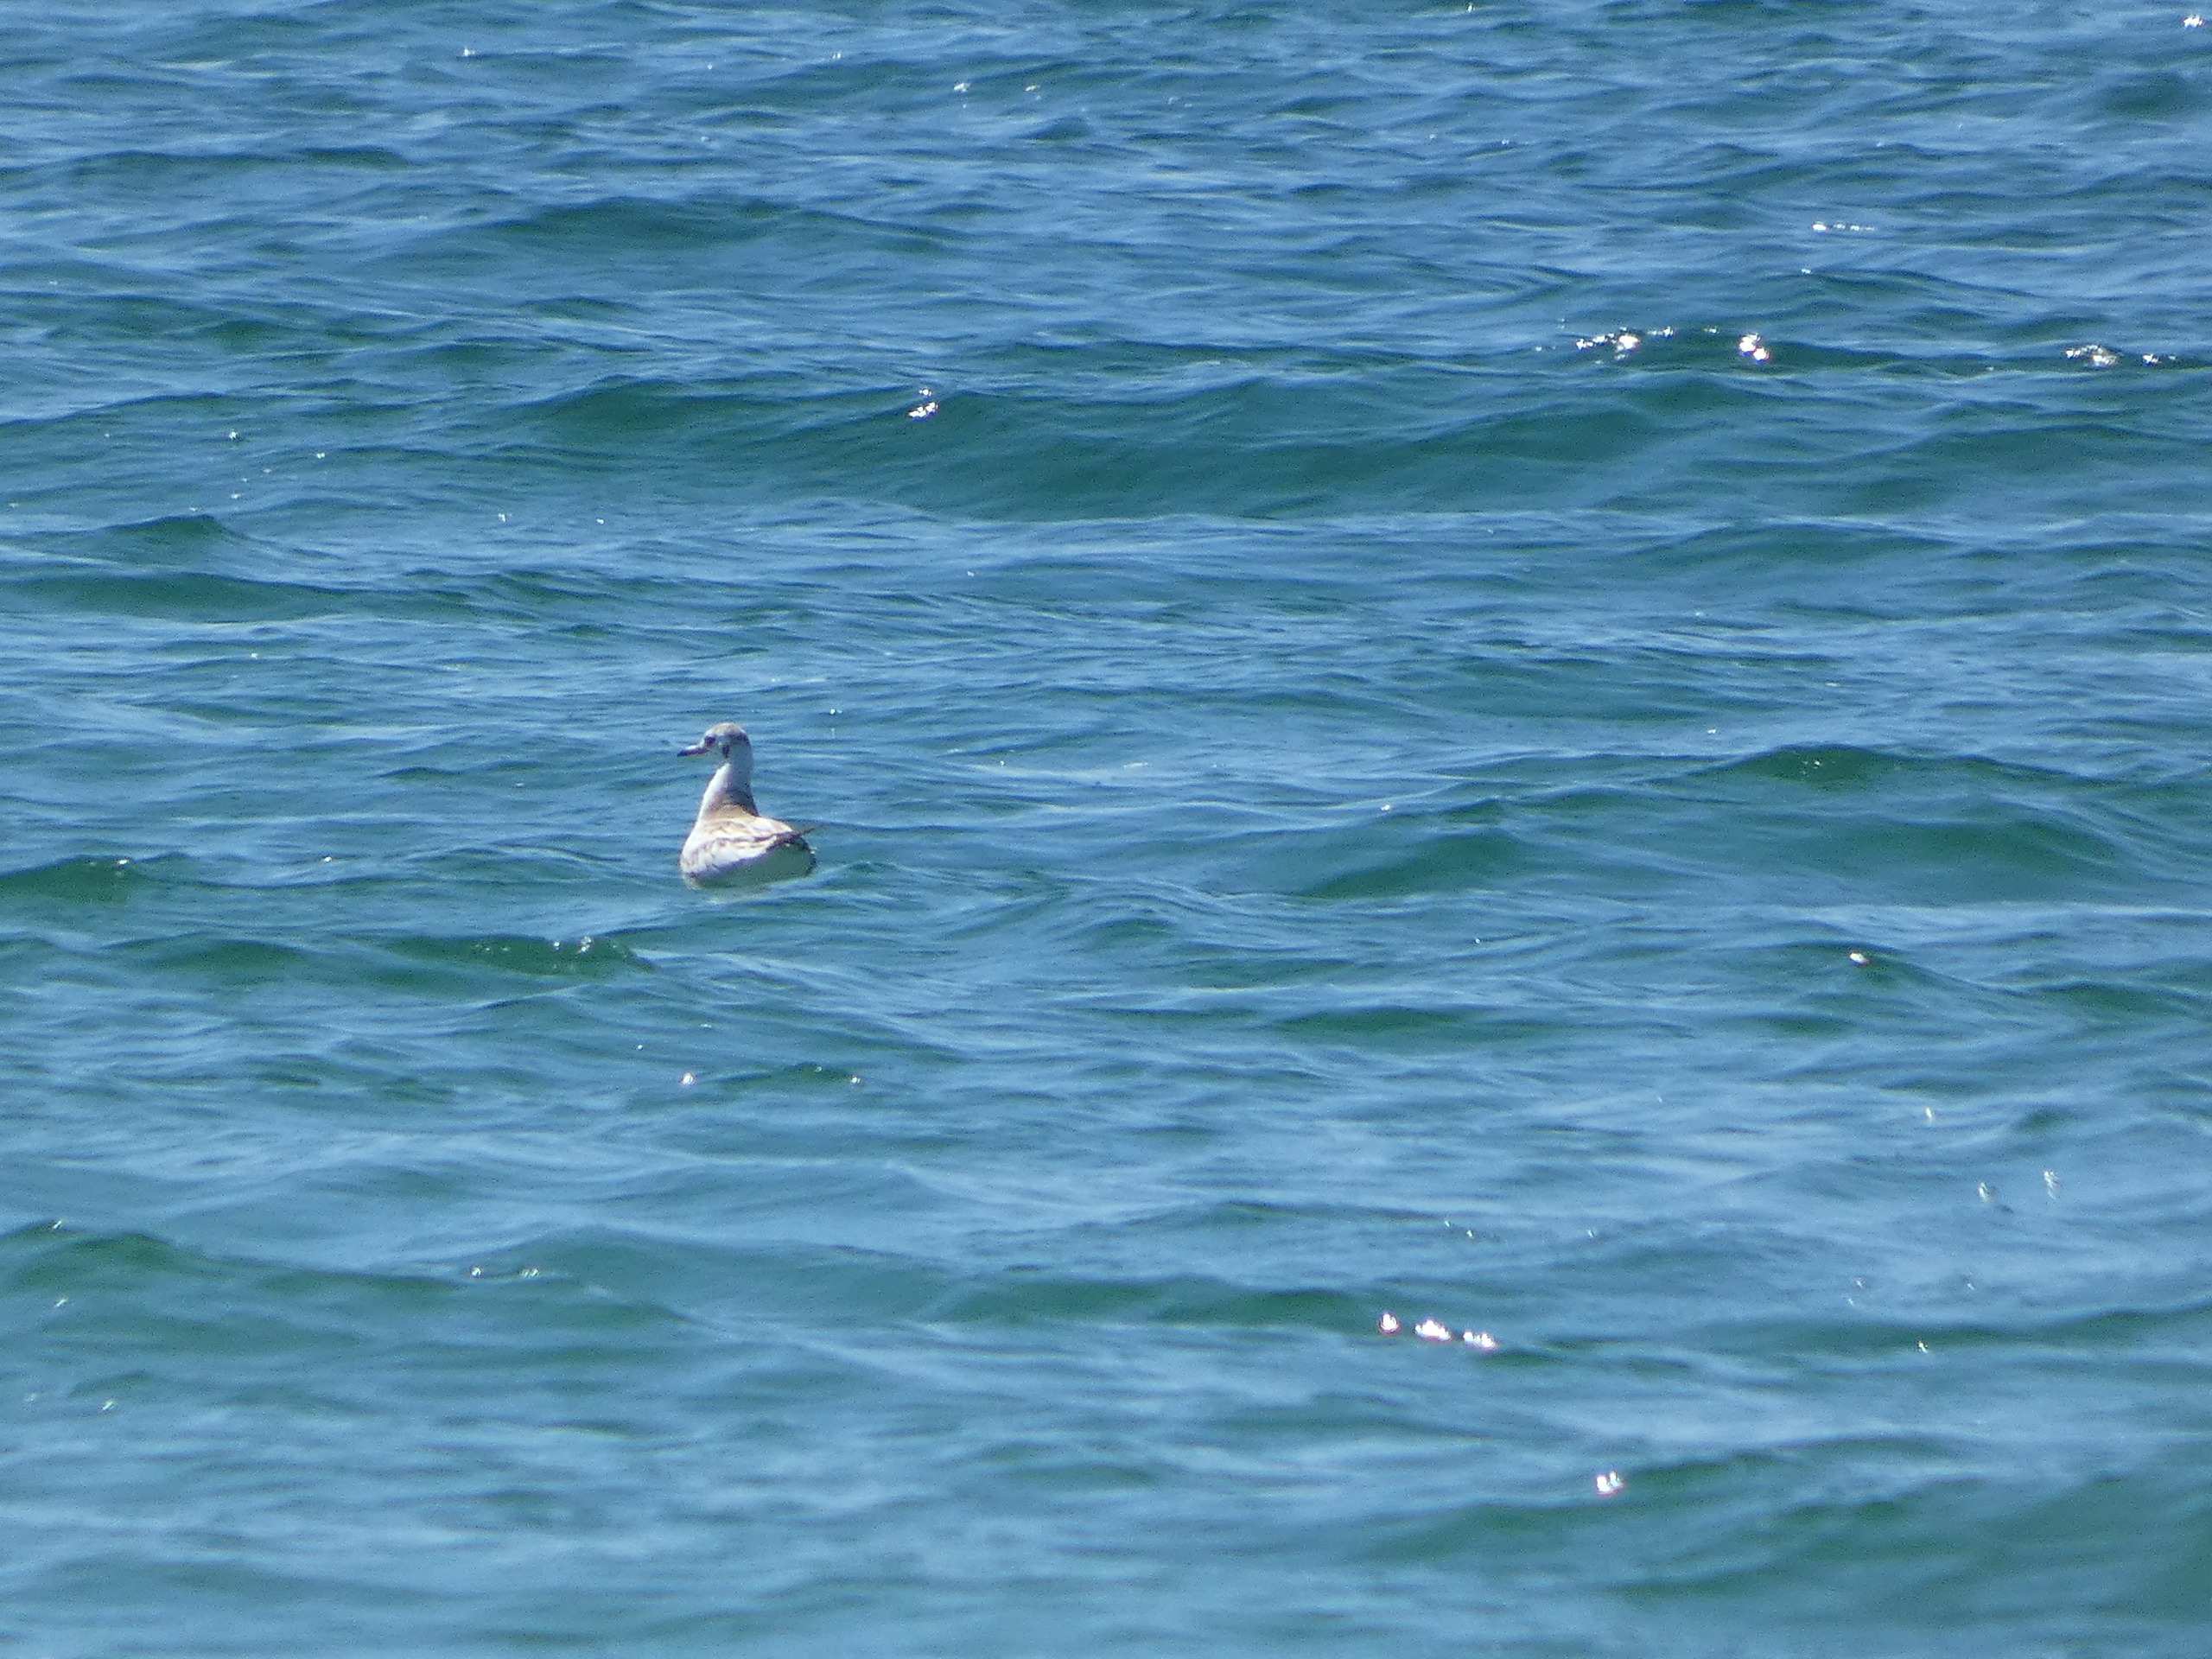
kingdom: Animalia
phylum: Chordata
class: Aves
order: Charadriiformes
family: Laridae
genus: Chroicocephalus
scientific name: Chroicocephalus ridibundus
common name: Hættemåge
